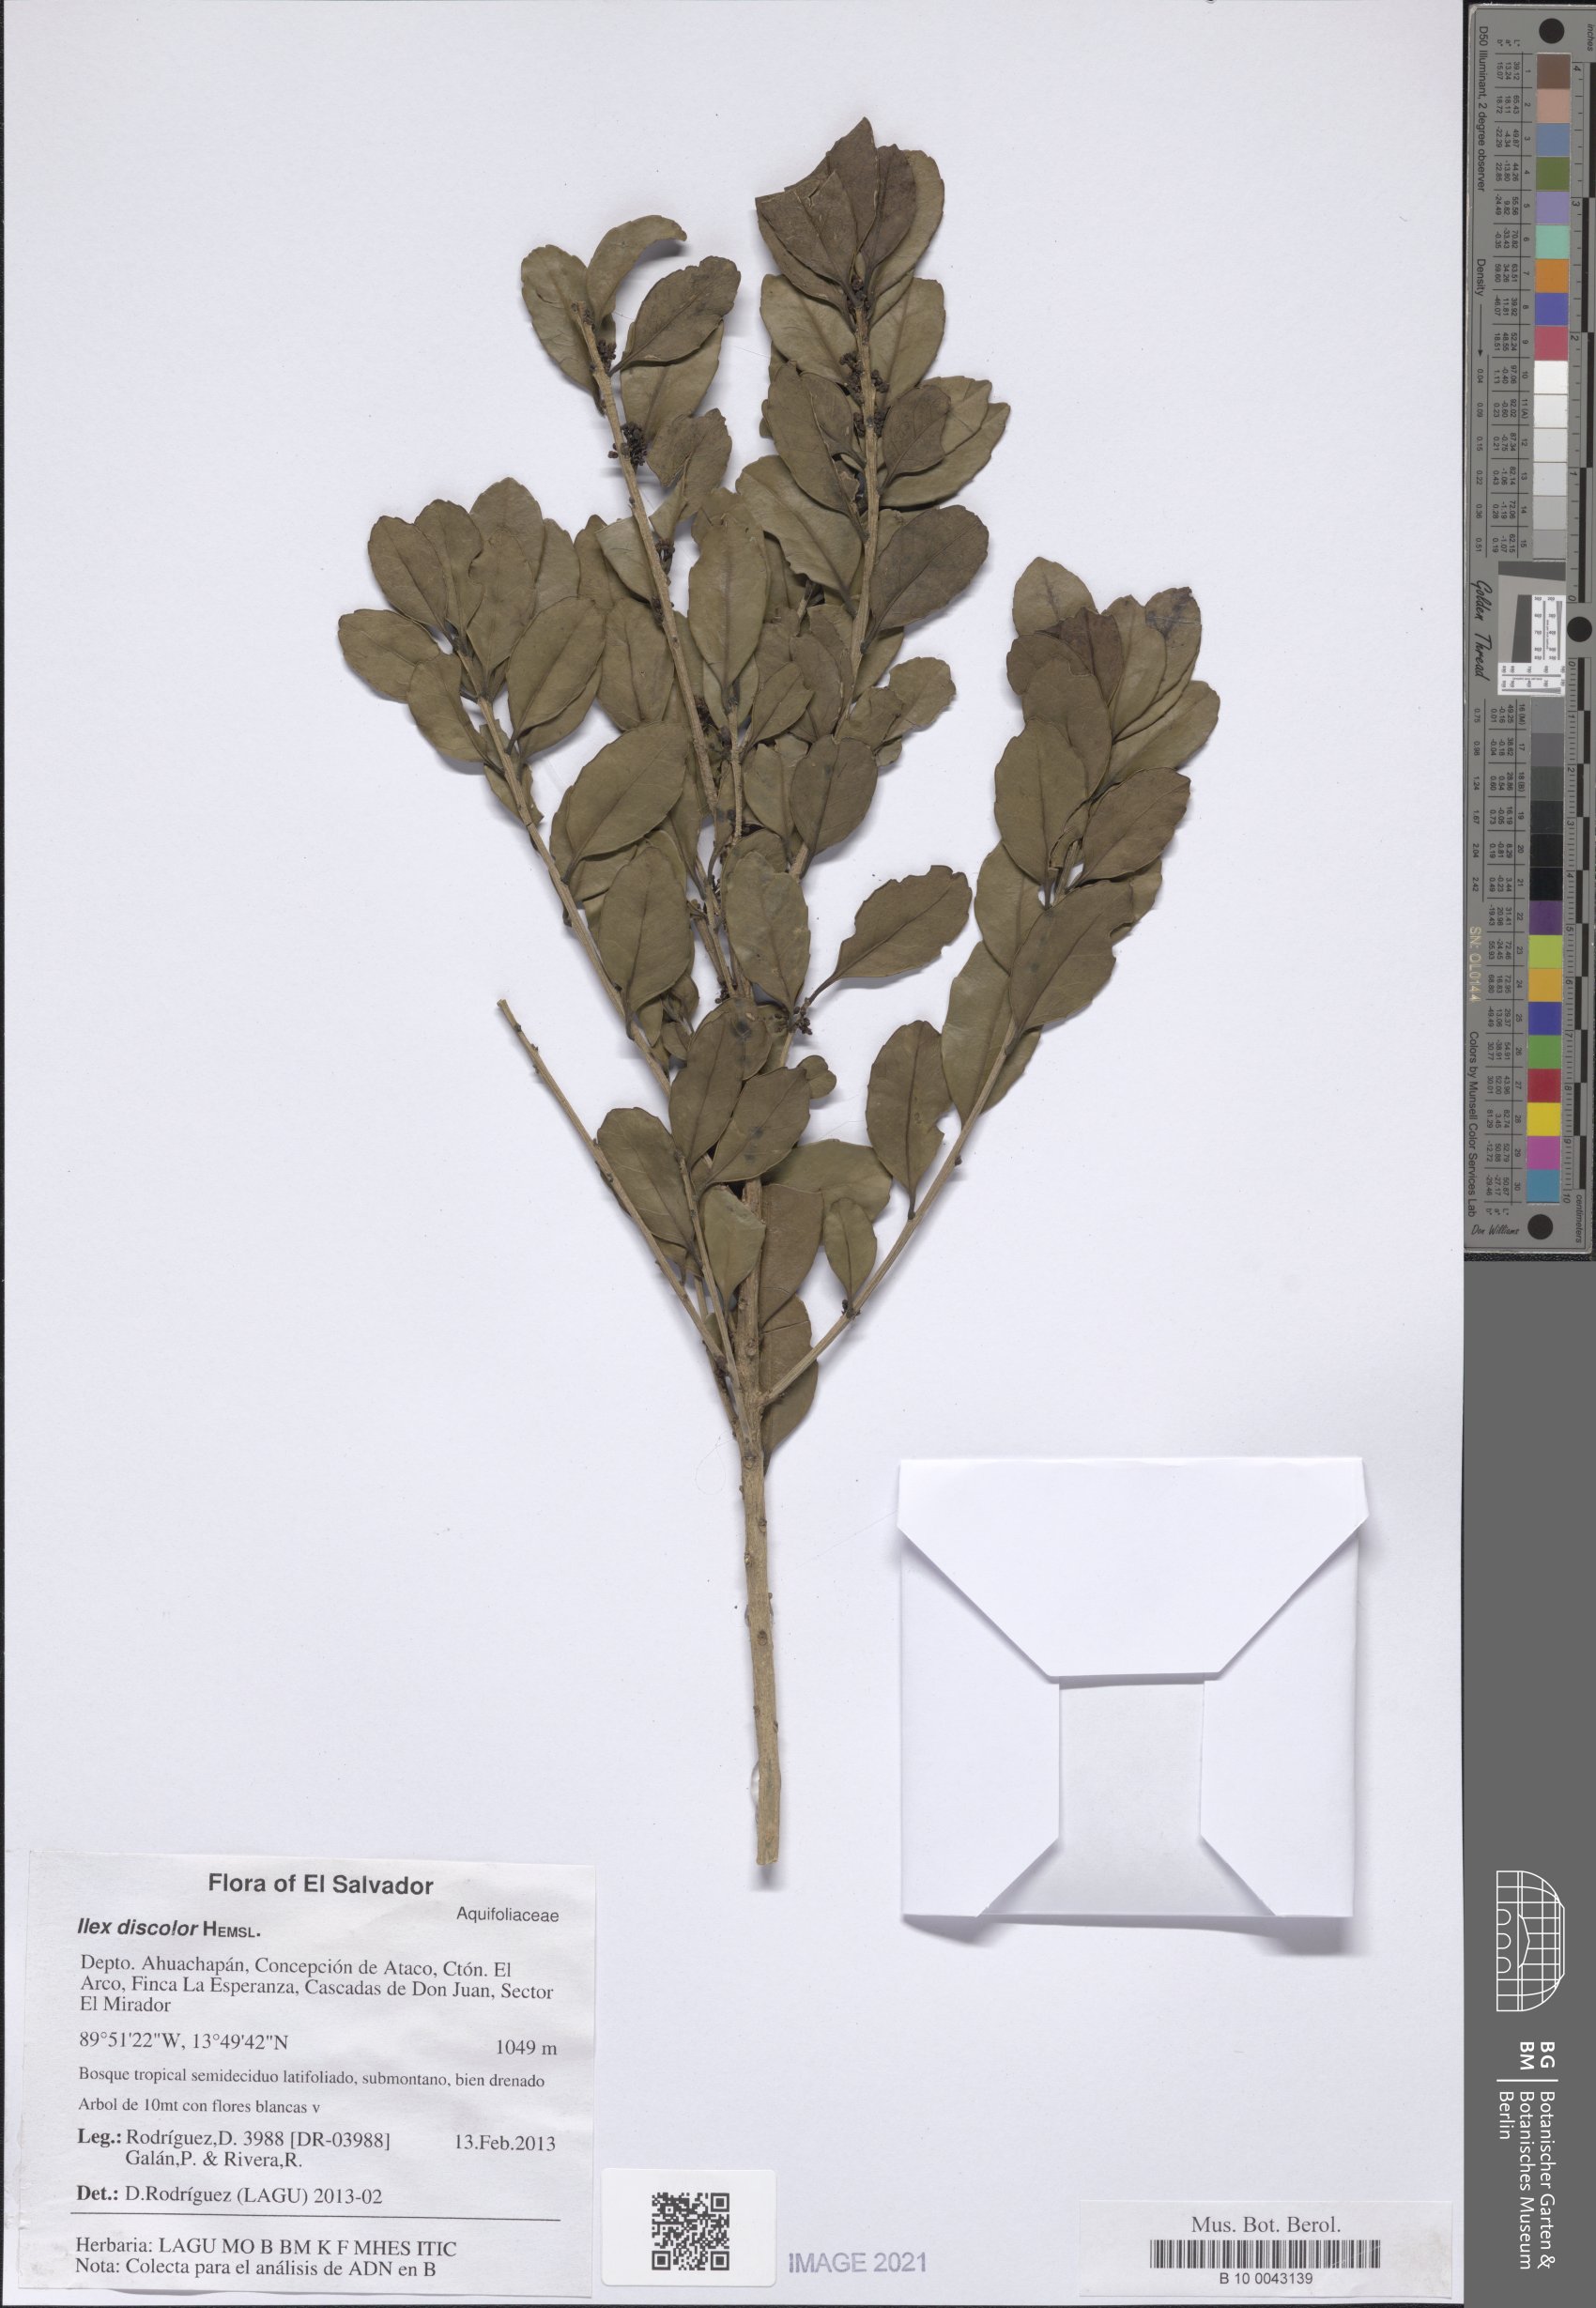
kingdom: Plantae
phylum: Tracheophyta
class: Magnoliopsida
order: Aquifoliales
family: Aquifoliaceae
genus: Ilex
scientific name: Ilex discolor
